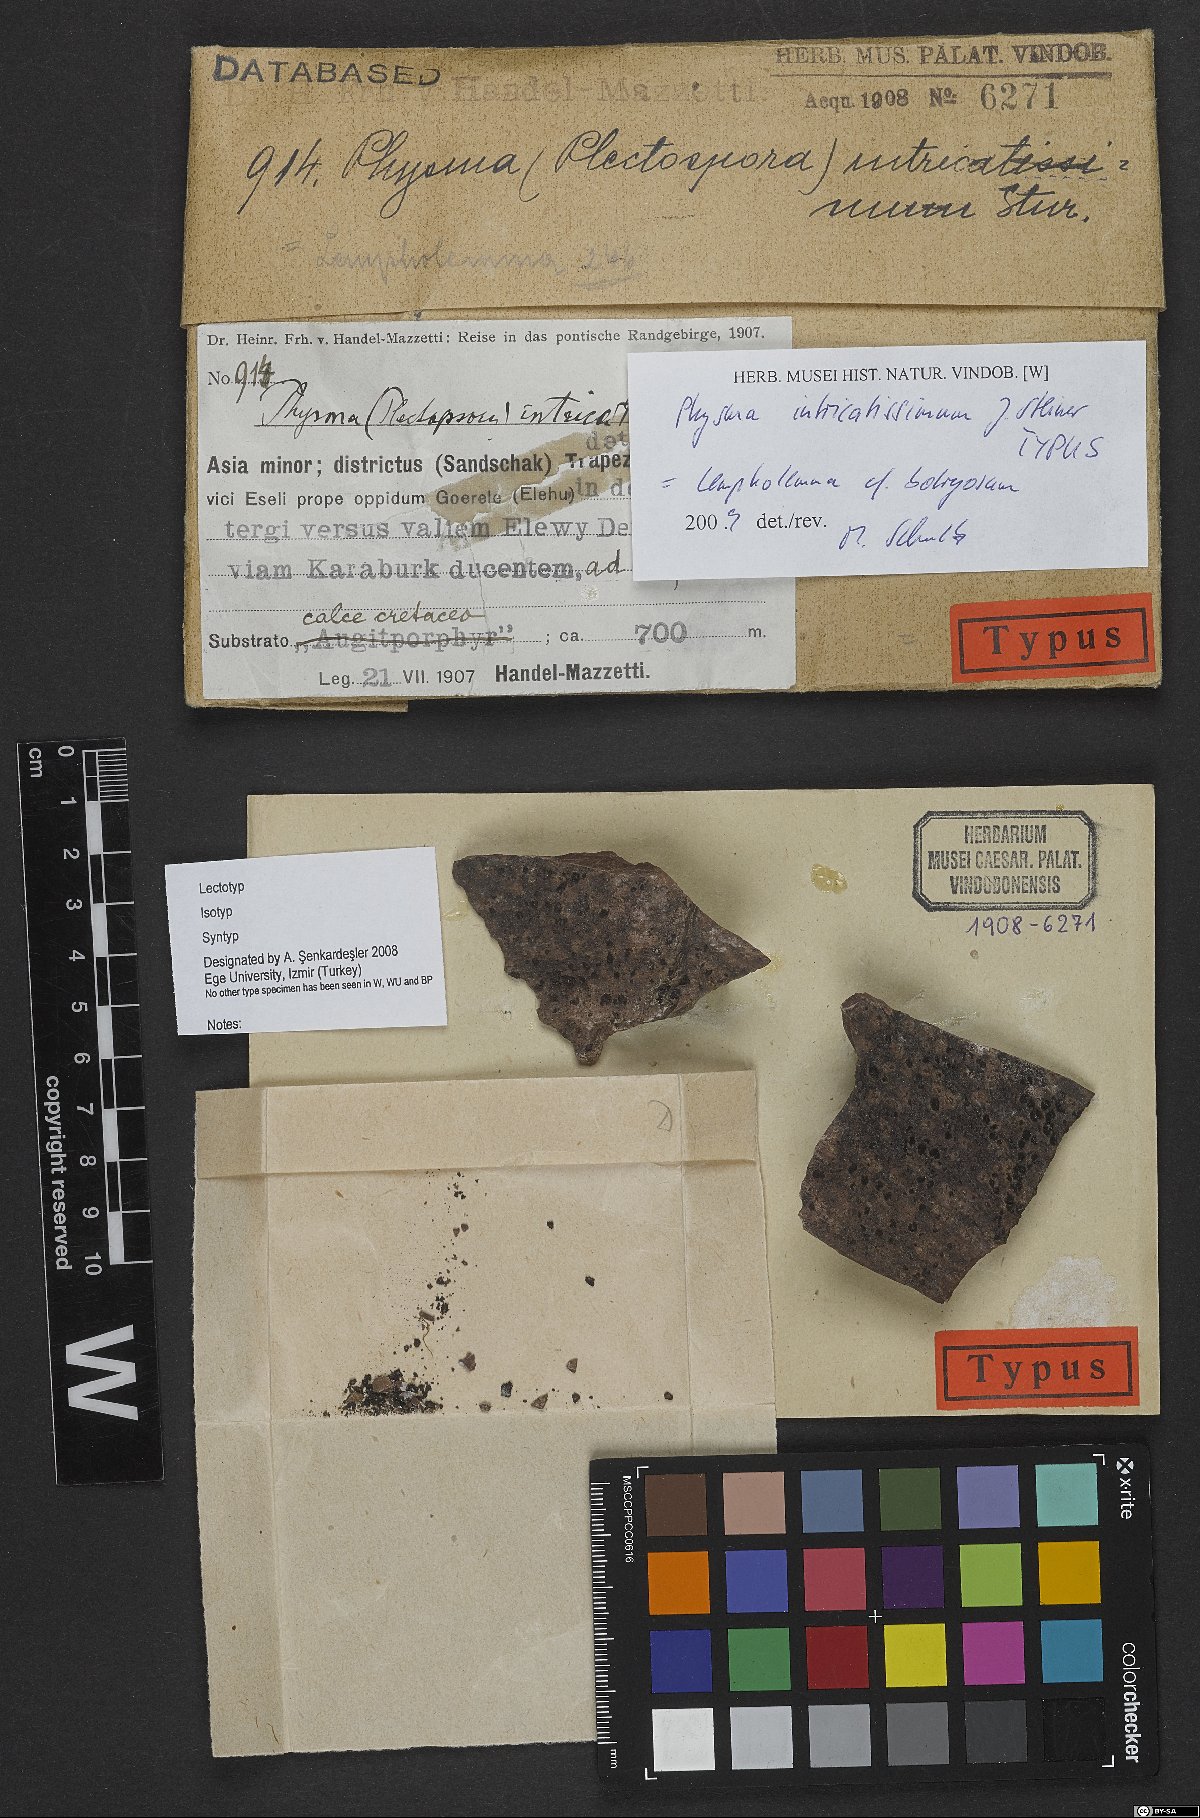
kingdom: Fungi
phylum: Ascomycota
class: Lecanoromycetes
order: Peltigerales
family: Collemataceae
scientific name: Collemataceae
